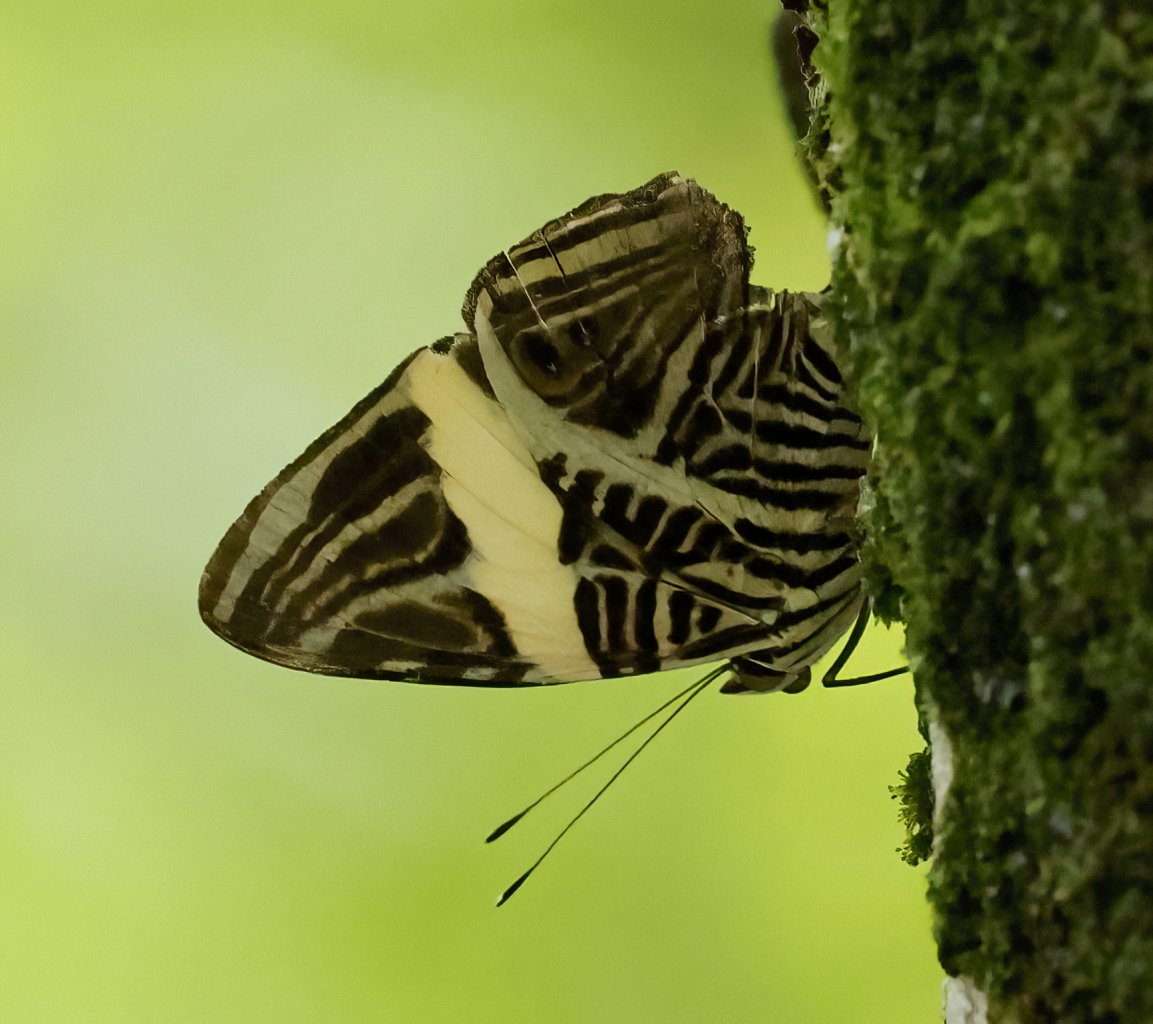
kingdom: Animalia
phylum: Arthropoda
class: Insecta
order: Lepidoptera
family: Nymphalidae
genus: Colobura
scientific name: Colobura dirce
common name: Dirce Beauty
